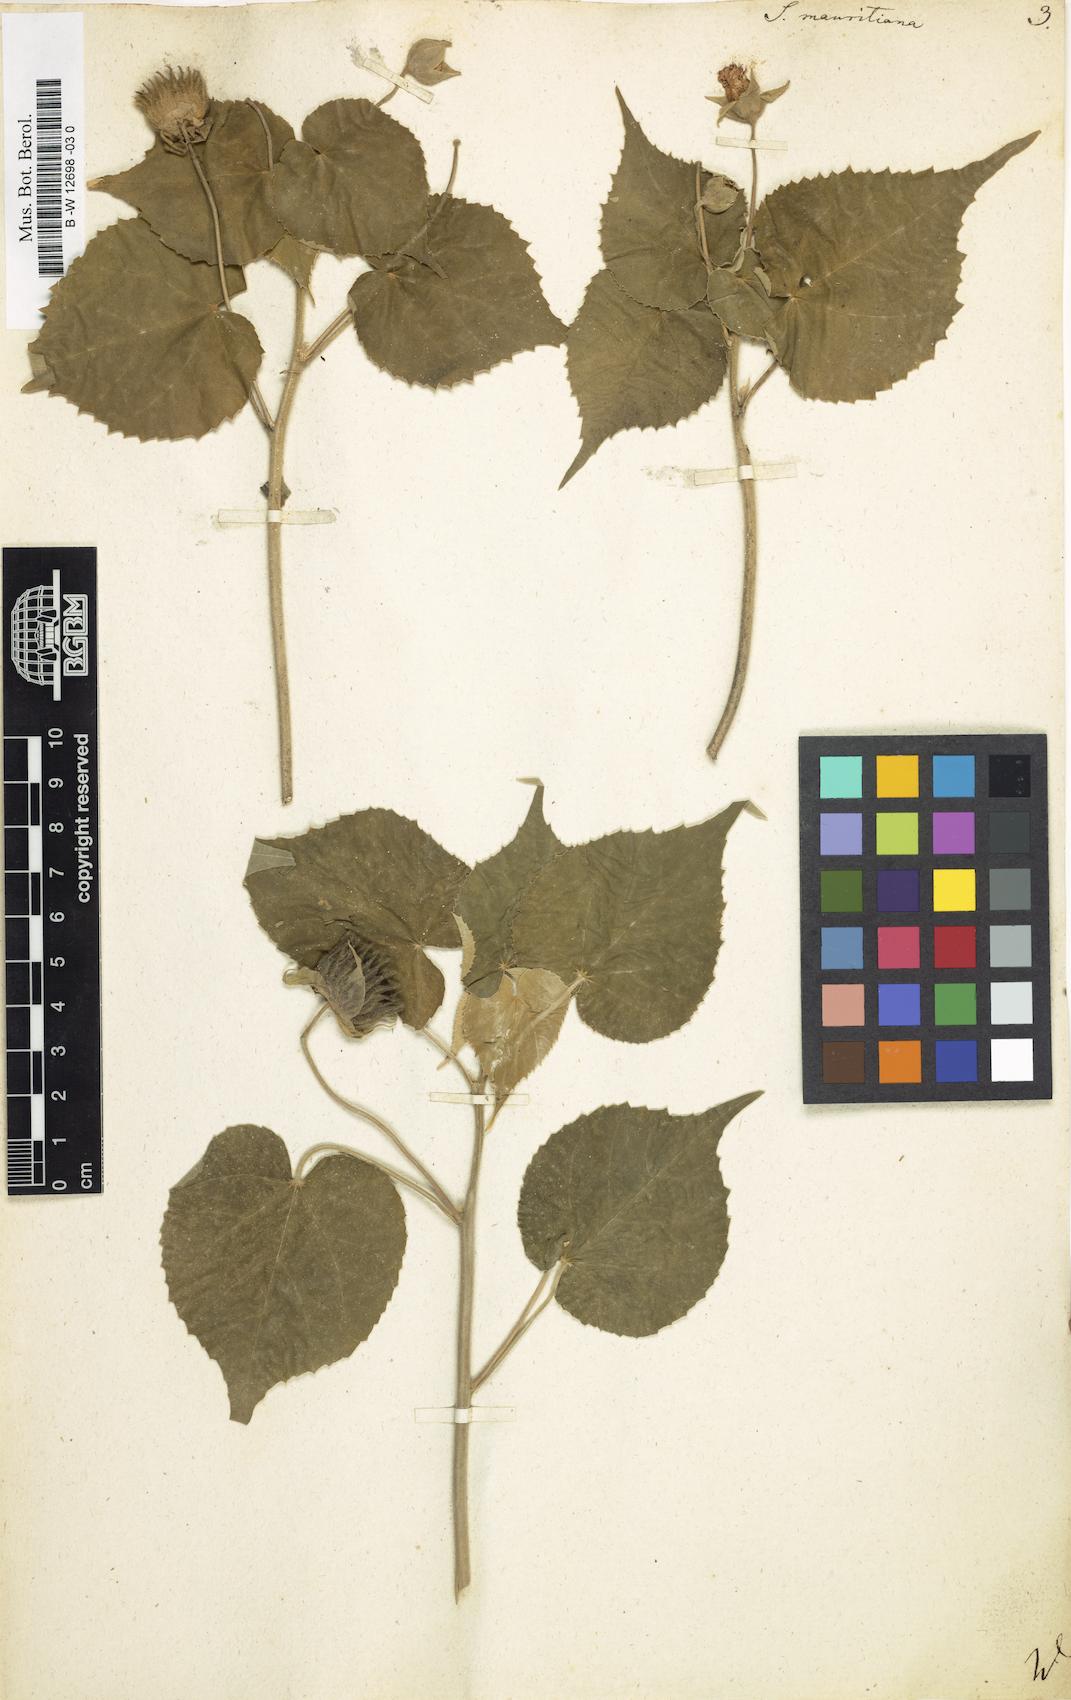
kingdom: Plantae
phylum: Tracheophyta
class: Magnoliopsida
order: Malvales
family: Malvaceae
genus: Abutilon
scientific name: Abutilon mauritianum
